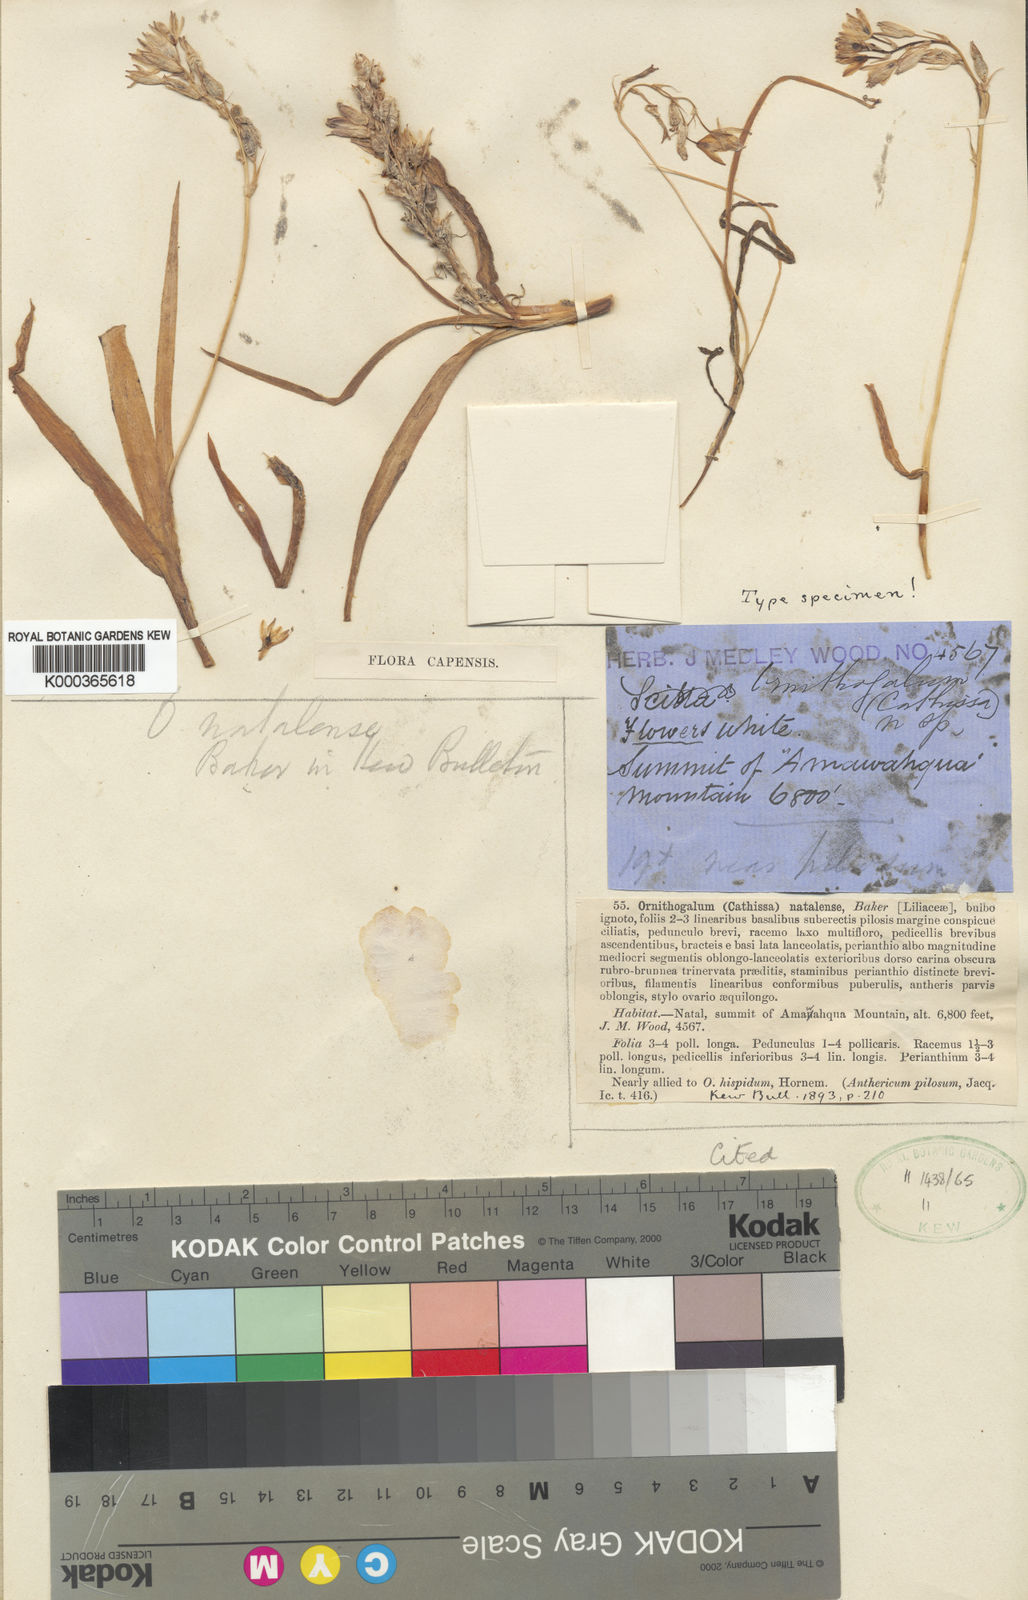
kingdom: Plantae
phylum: Tracheophyta
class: Liliopsida
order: Asparagales
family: Asparagaceae
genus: Ornithogalum
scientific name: Ornithogalum graminifolium
